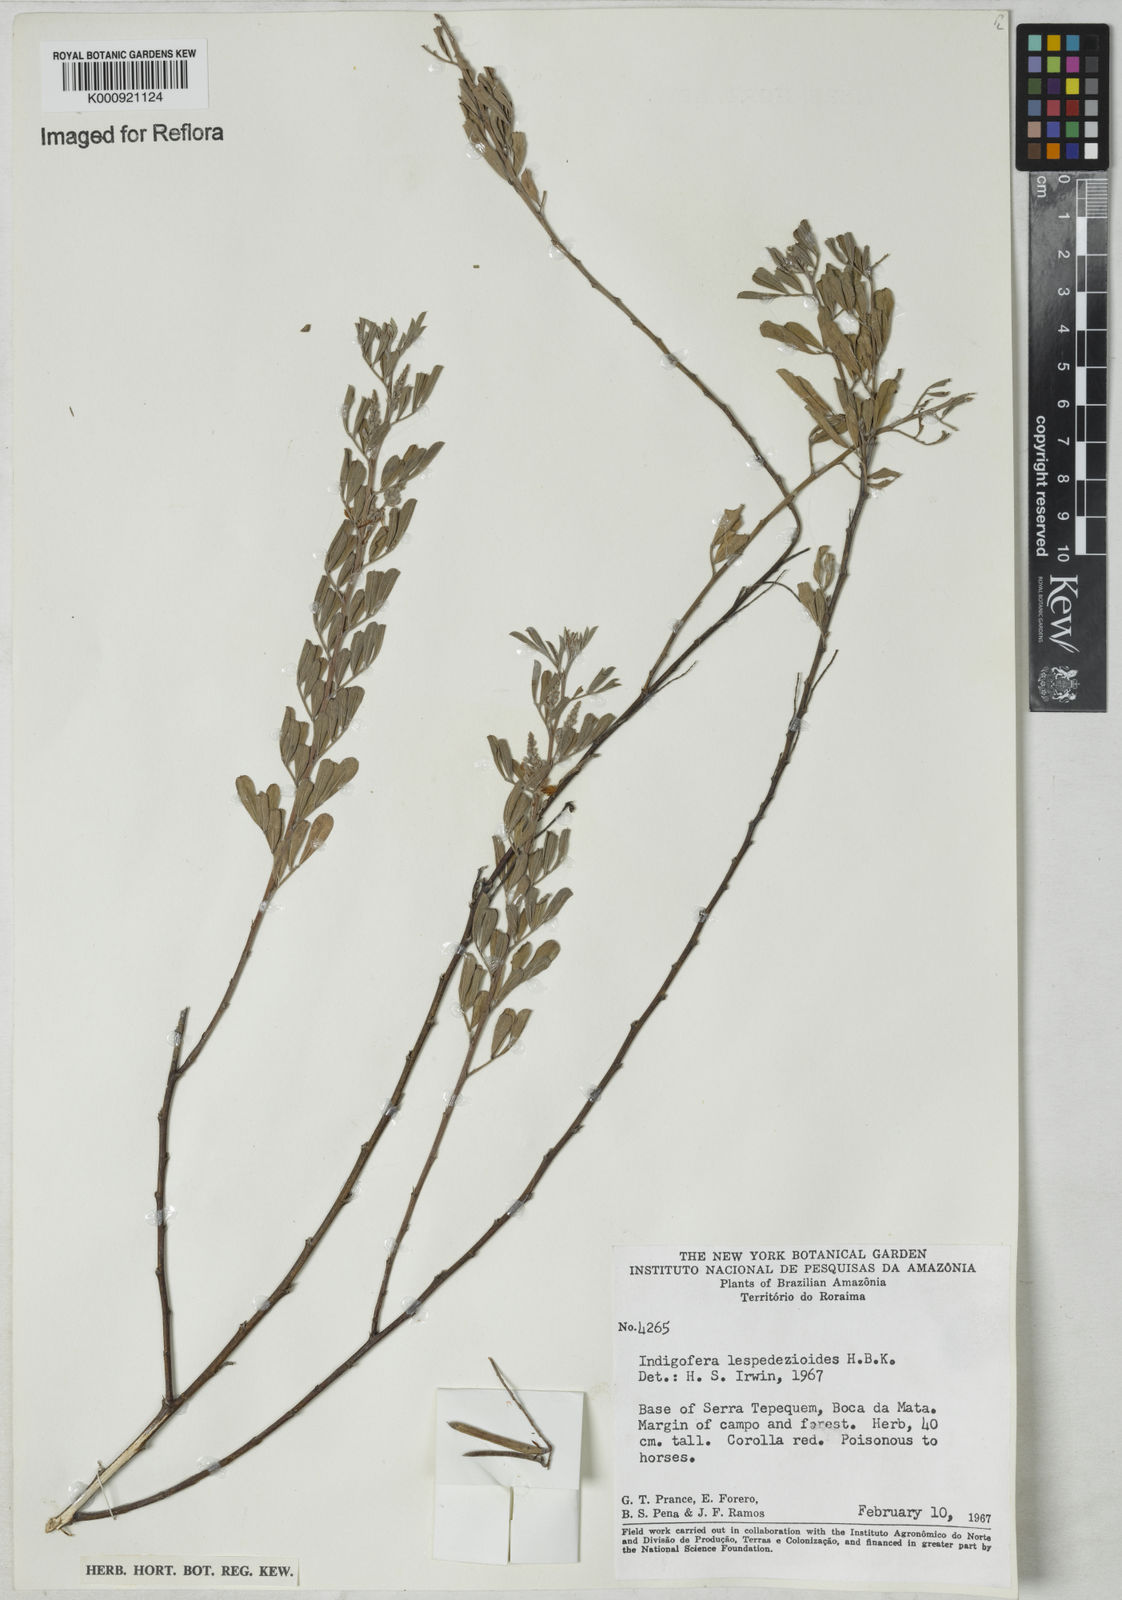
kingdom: Plantae
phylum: Tracheophyta
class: Magnoliopsida
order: Fabales
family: Fabaceae
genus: Indigofera
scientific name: Indigofera lespedezioides
